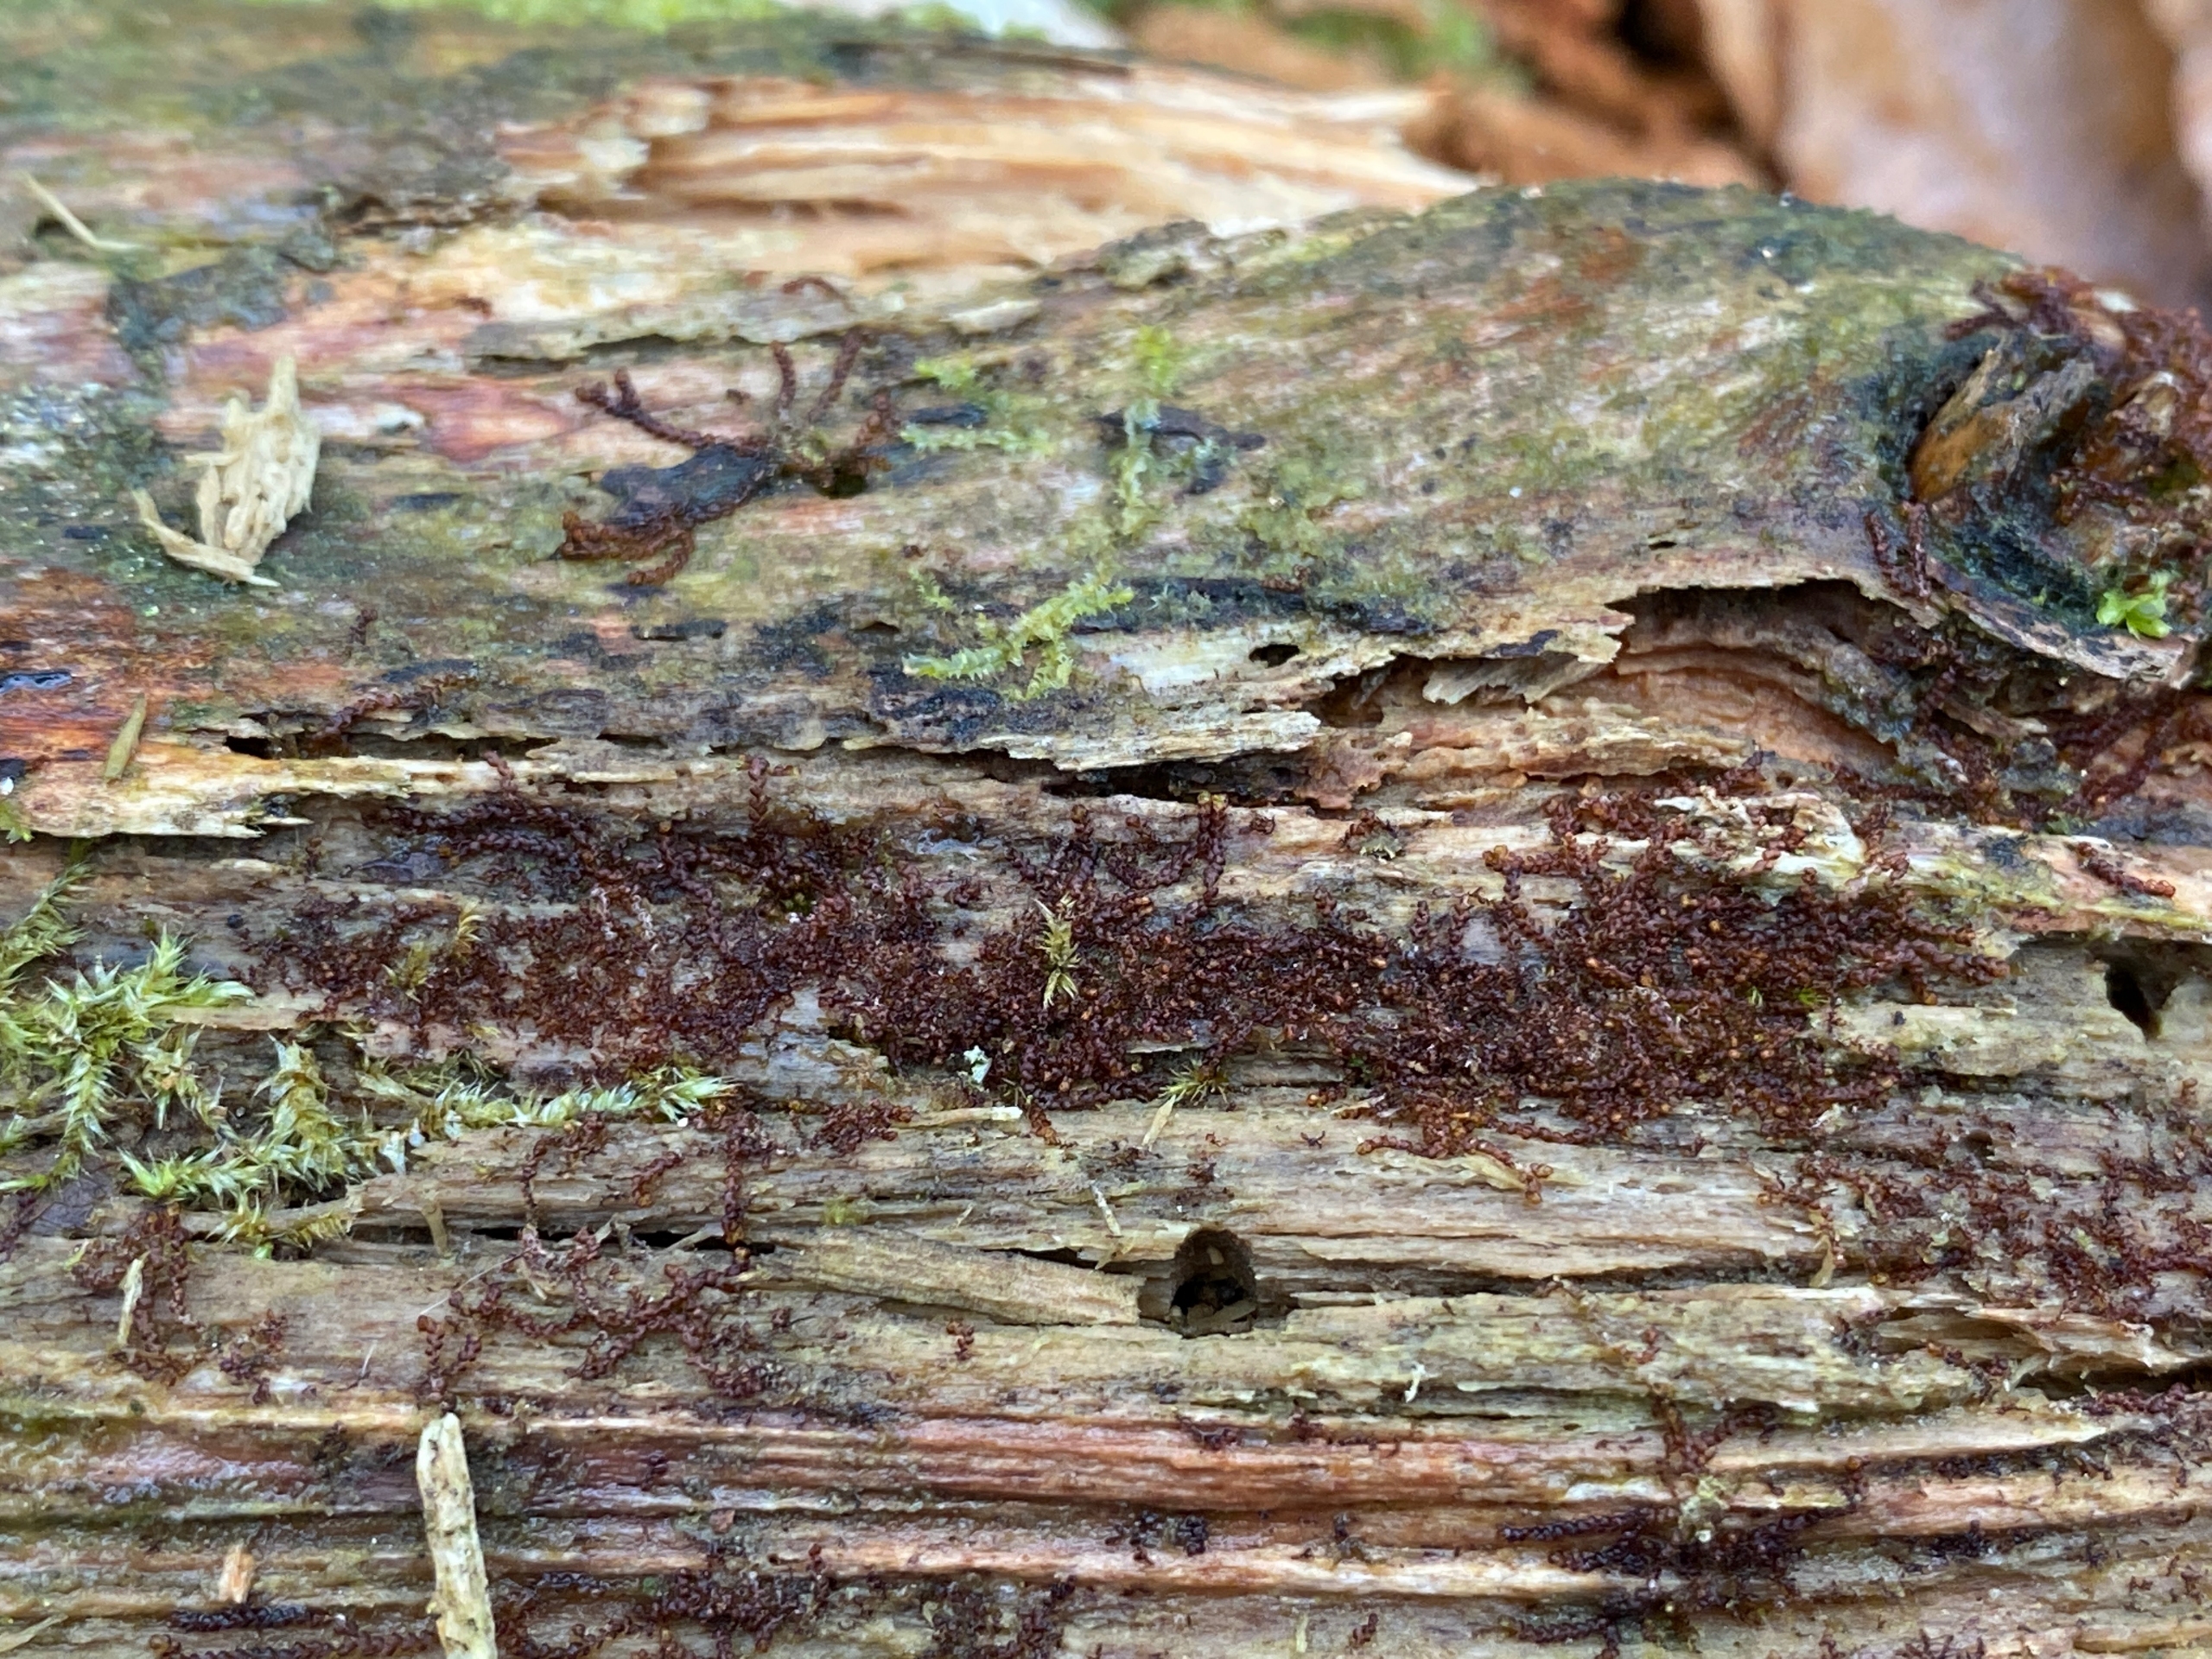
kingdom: Plantae
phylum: Marchantiophyta
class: Jungermanniopsida
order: Jungermanniales
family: Cephaloziaceae
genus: Nowellia
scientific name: Nowellia curvifolia
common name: Krumbladet stødmos
